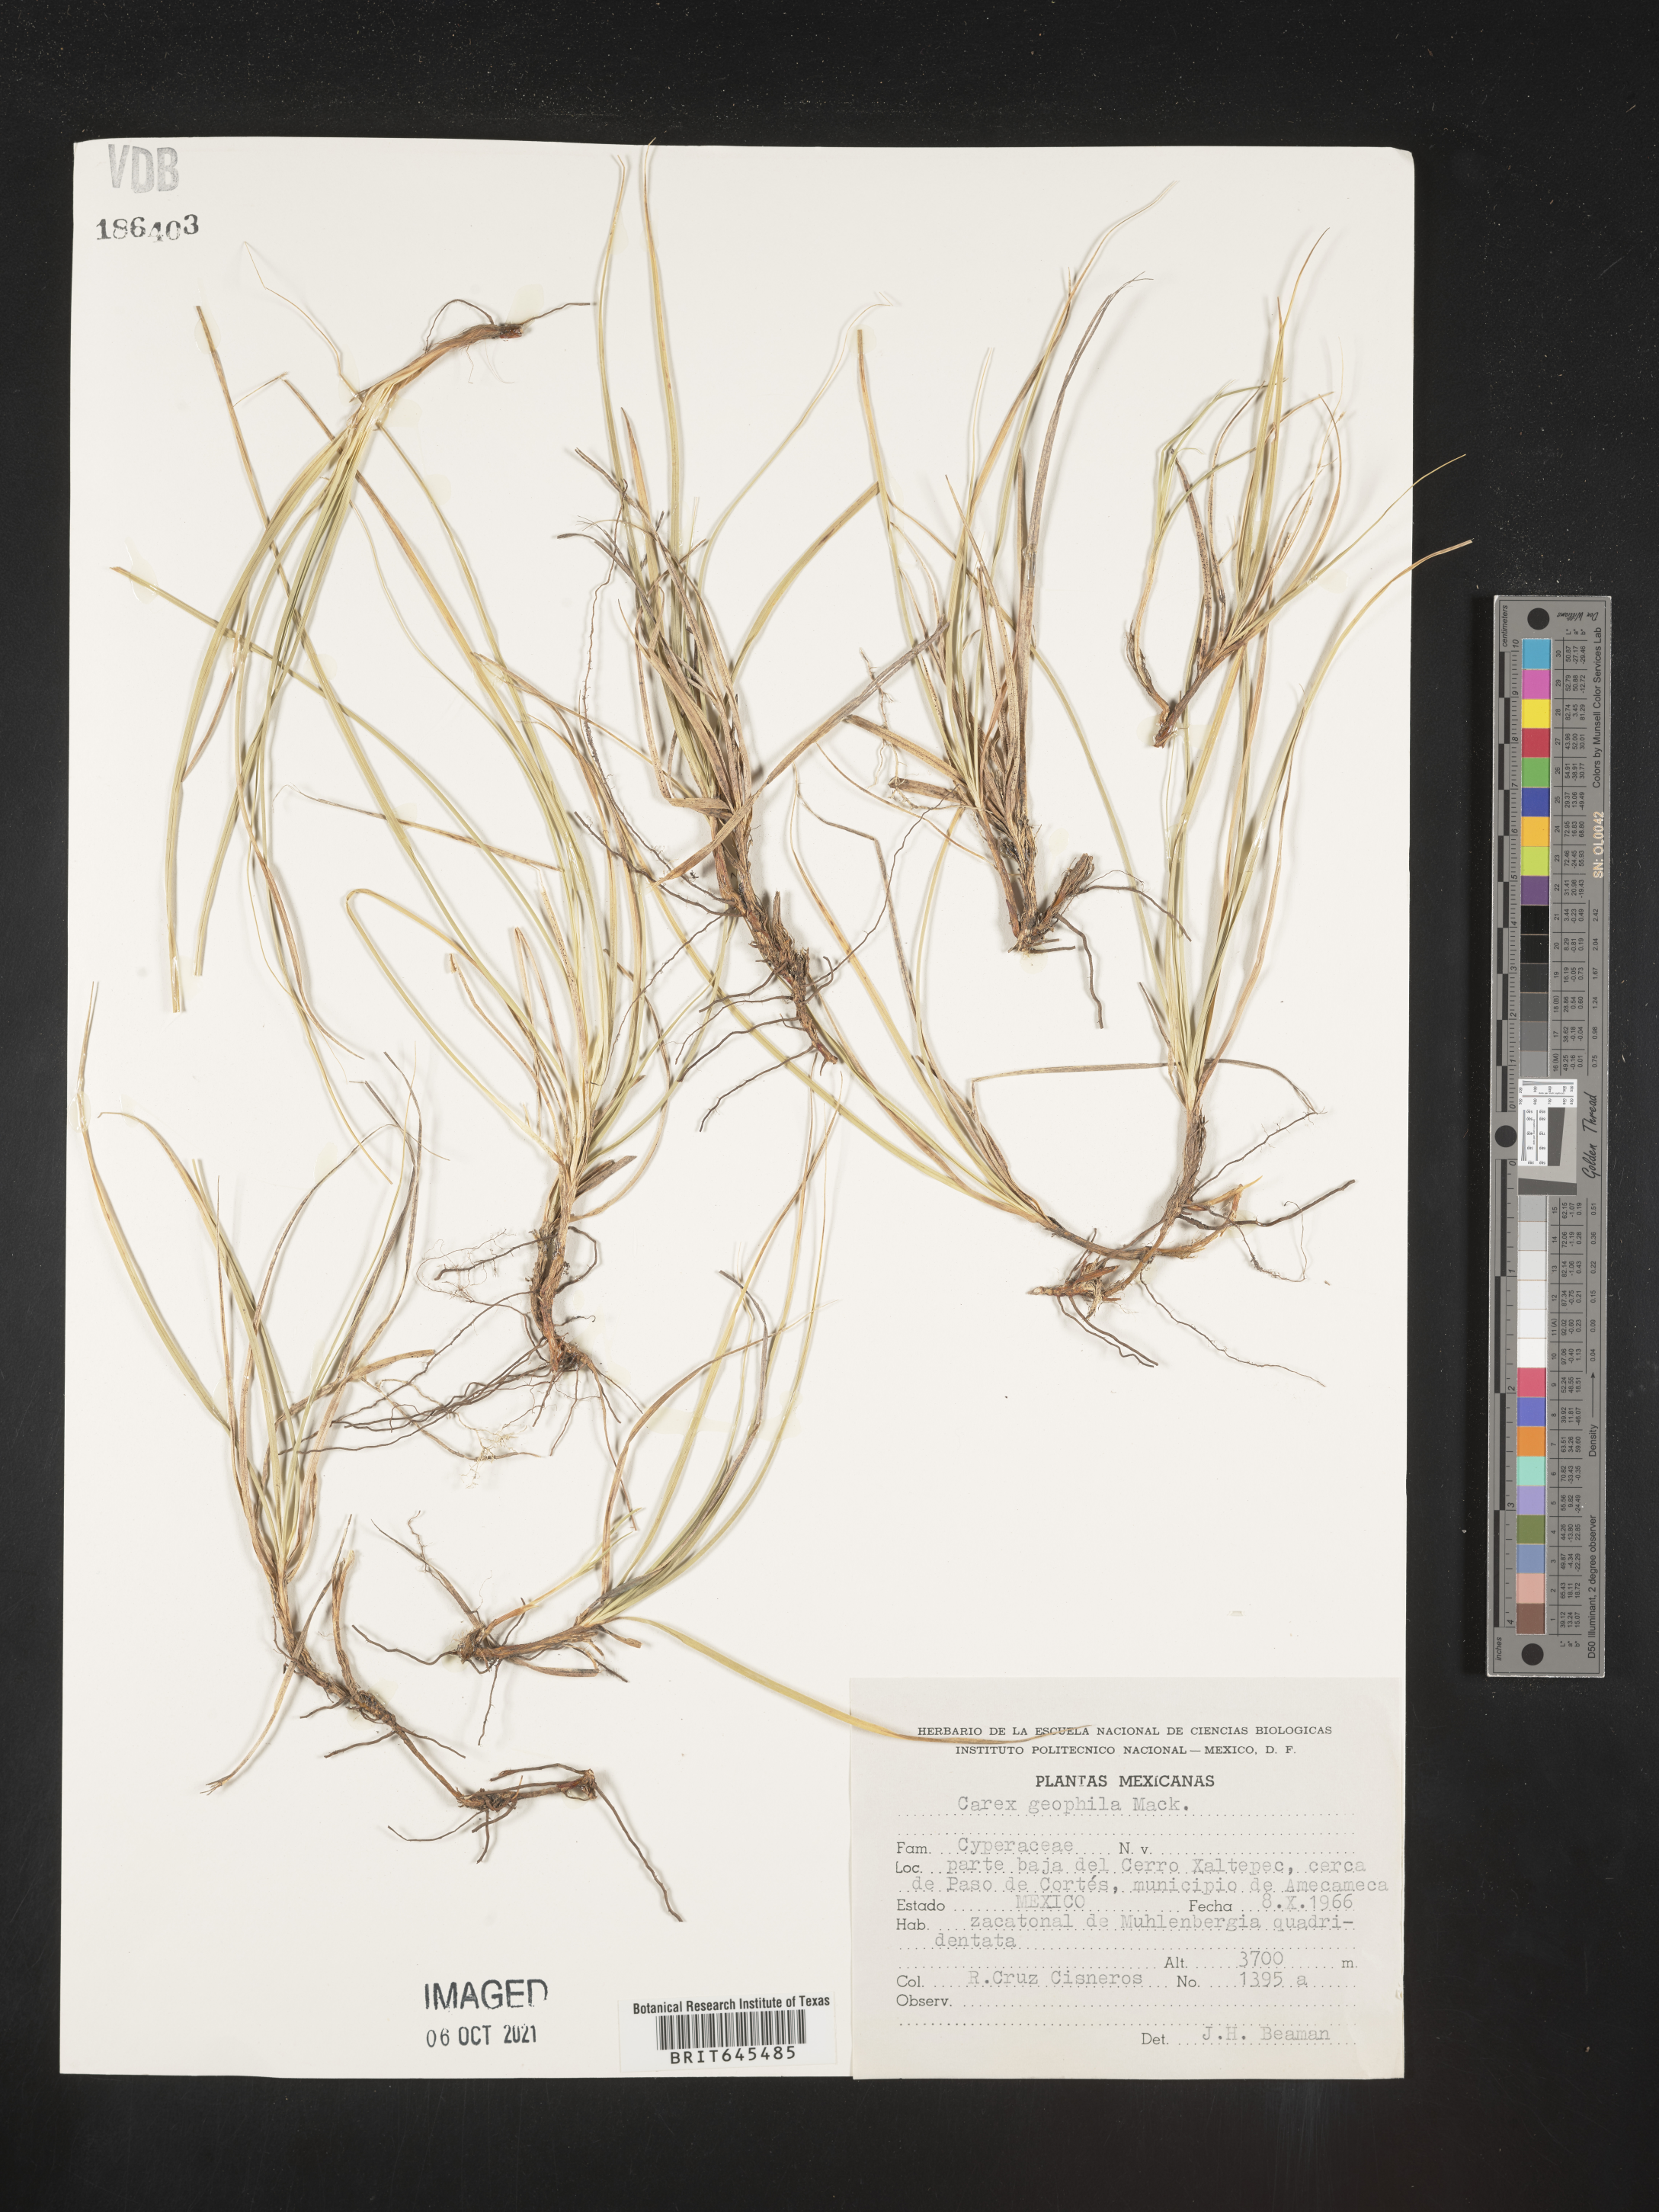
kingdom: Plantae
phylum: Tracheophyta
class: Liliopsida
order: Poales
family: Cyperaceae
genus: Carex
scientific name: Carex
